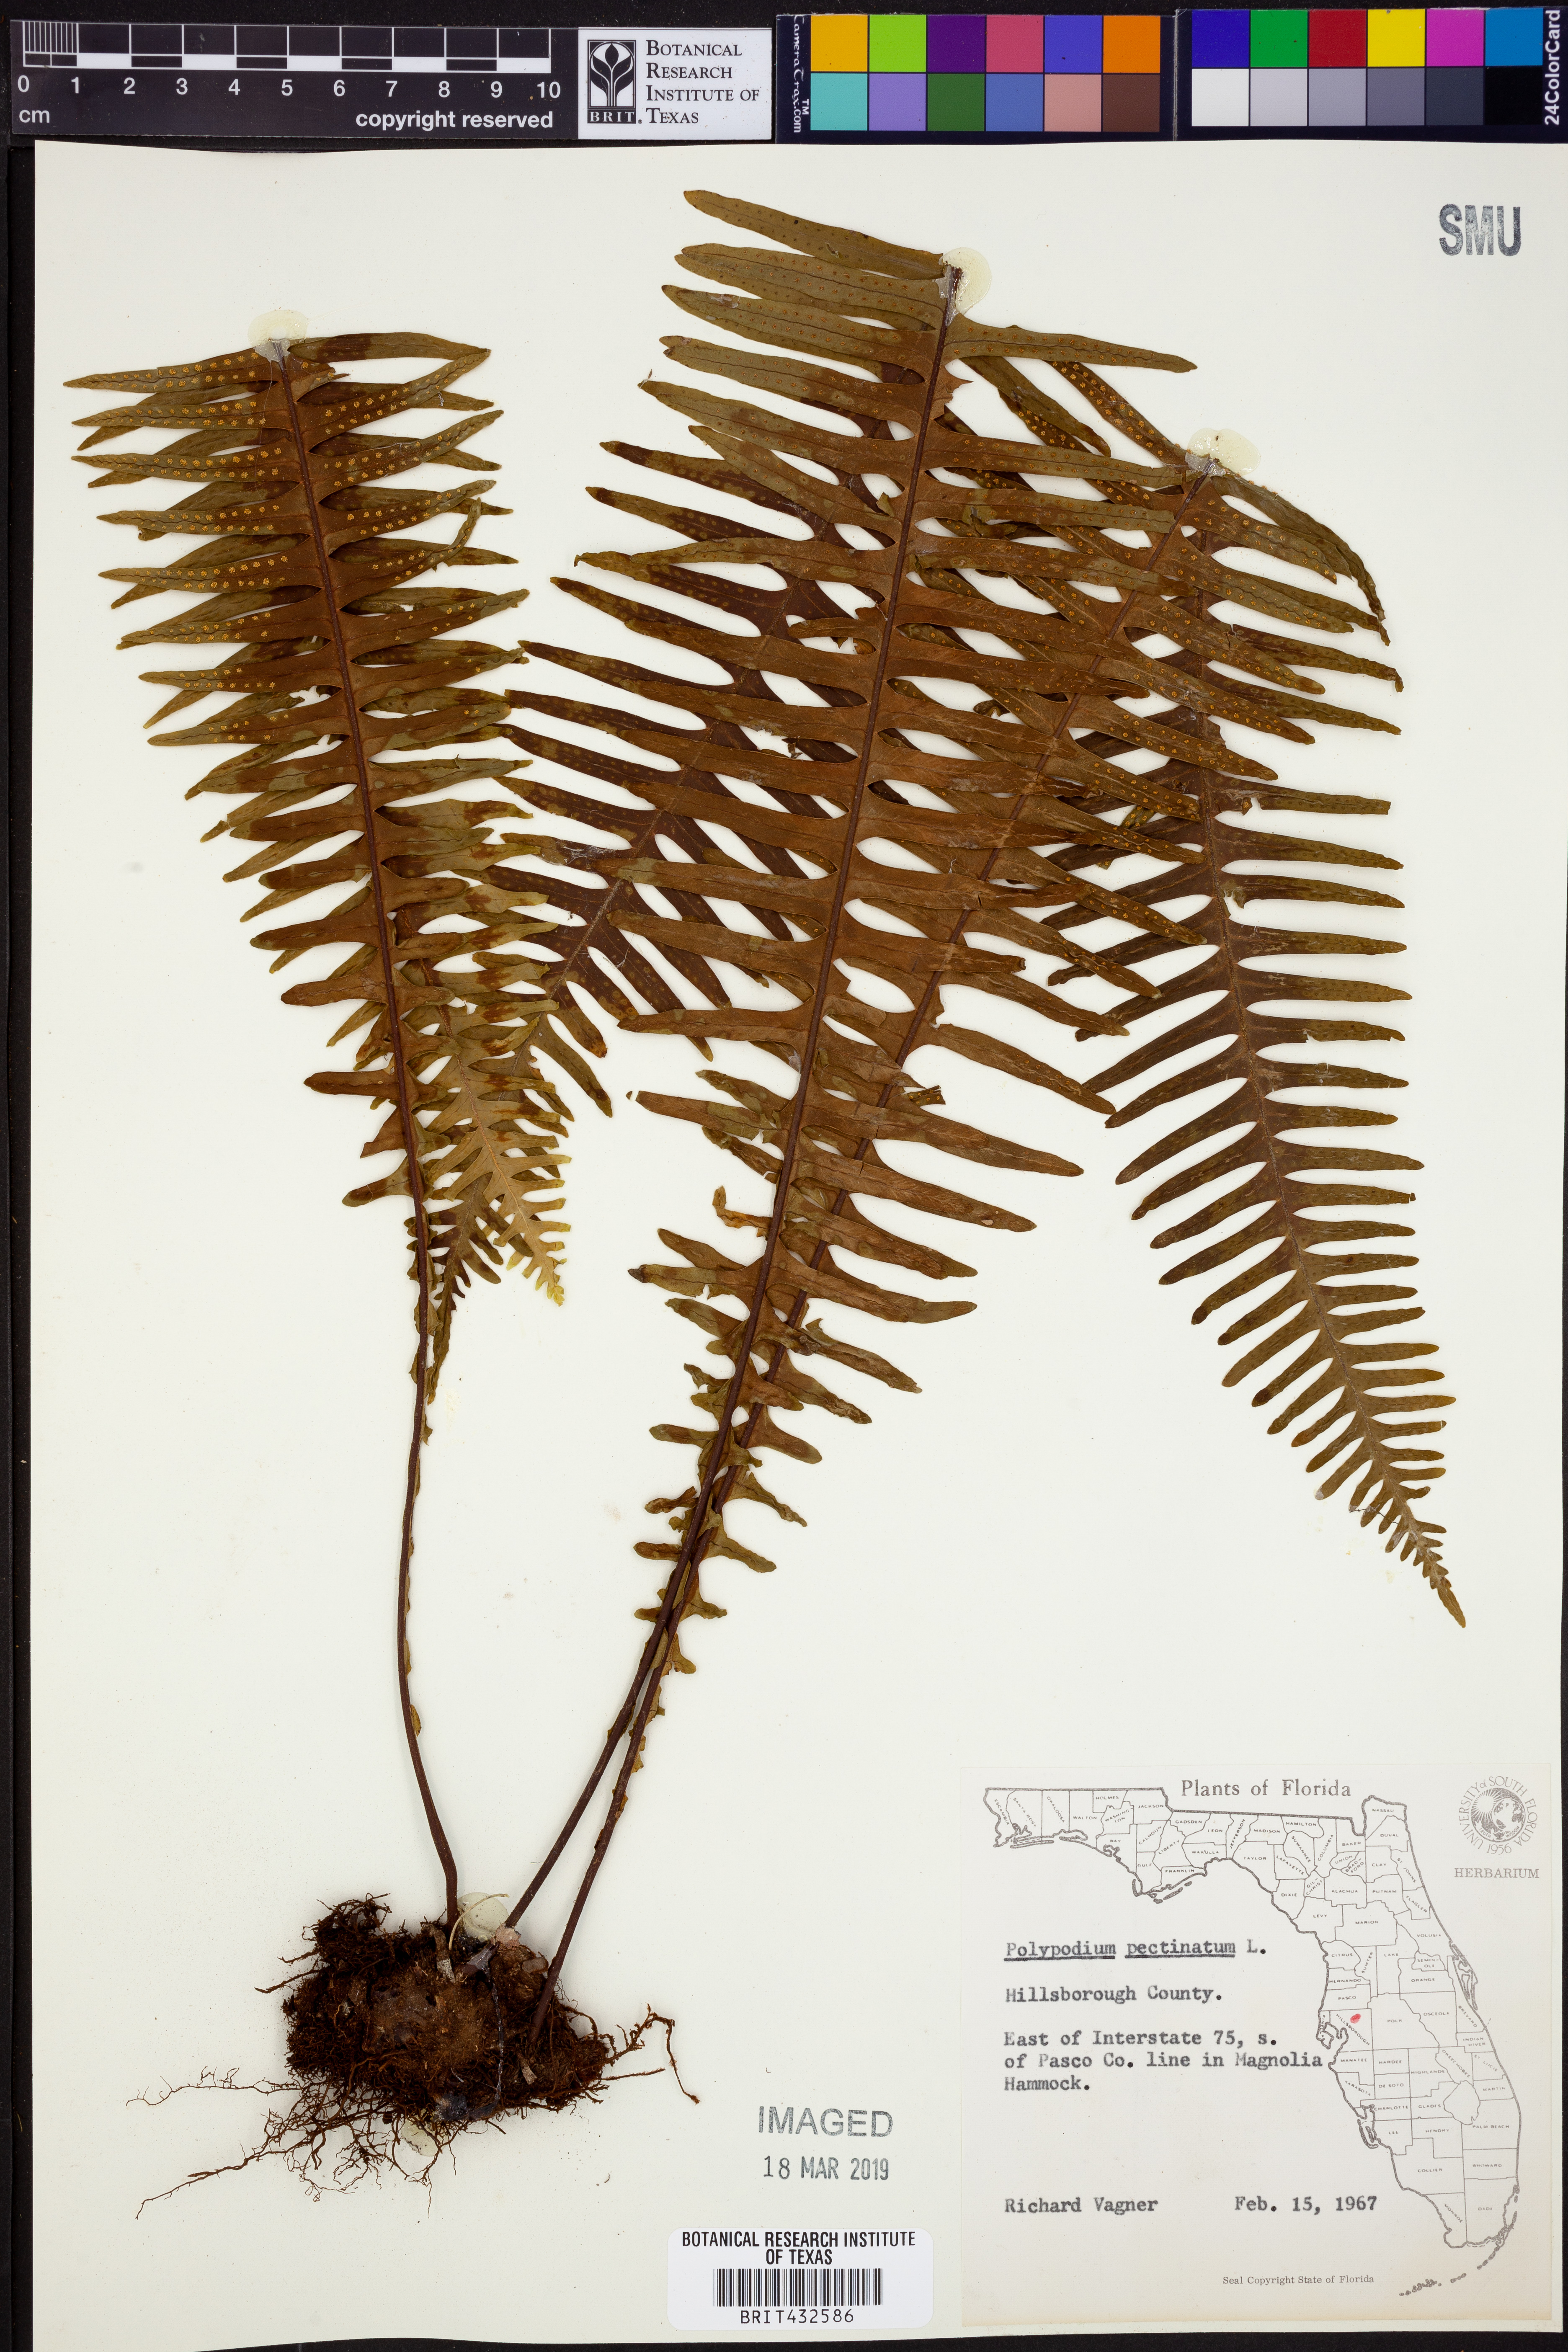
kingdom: Plantae
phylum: Tracheophyta
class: Polypodiopsida
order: Polypodiales
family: Polypodiaceae
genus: Pecluma
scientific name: Pecluma pectinata
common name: Msasa fern
